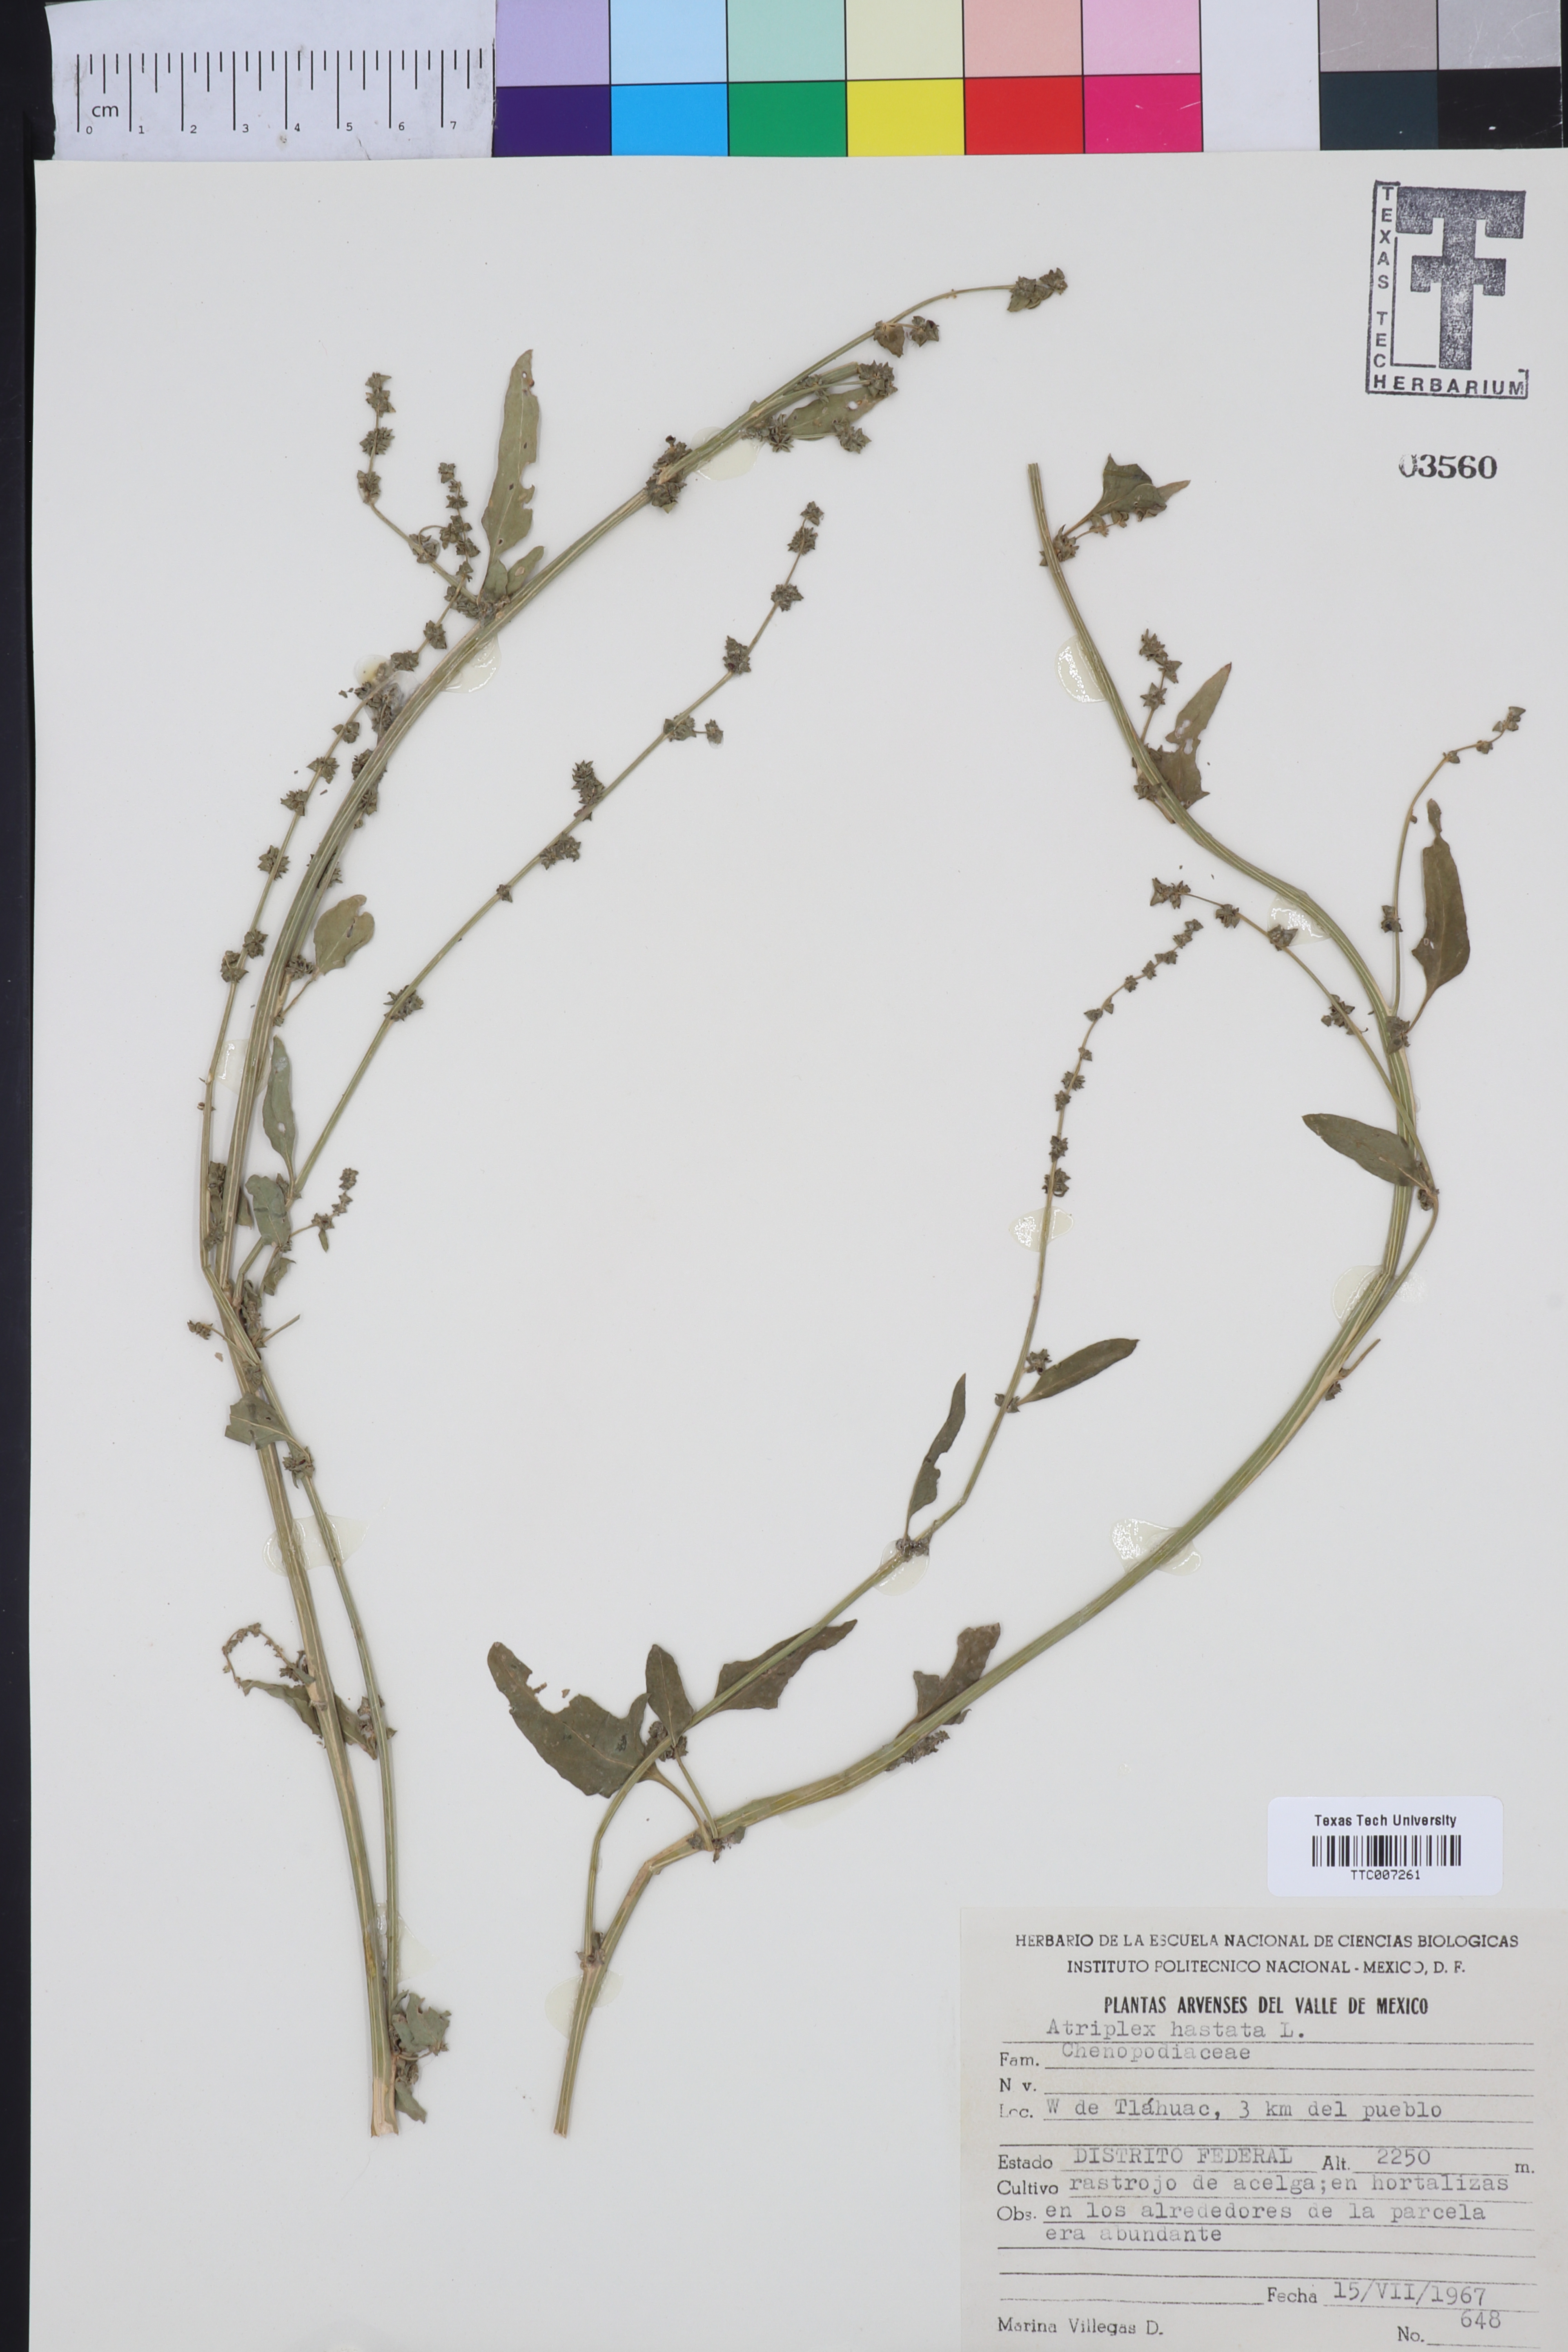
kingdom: Plantae
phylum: Tracheophyta
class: Magnoliopsida
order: Caryophyllales
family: Amaranthaceae
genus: Atriplex
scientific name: Atriplex
